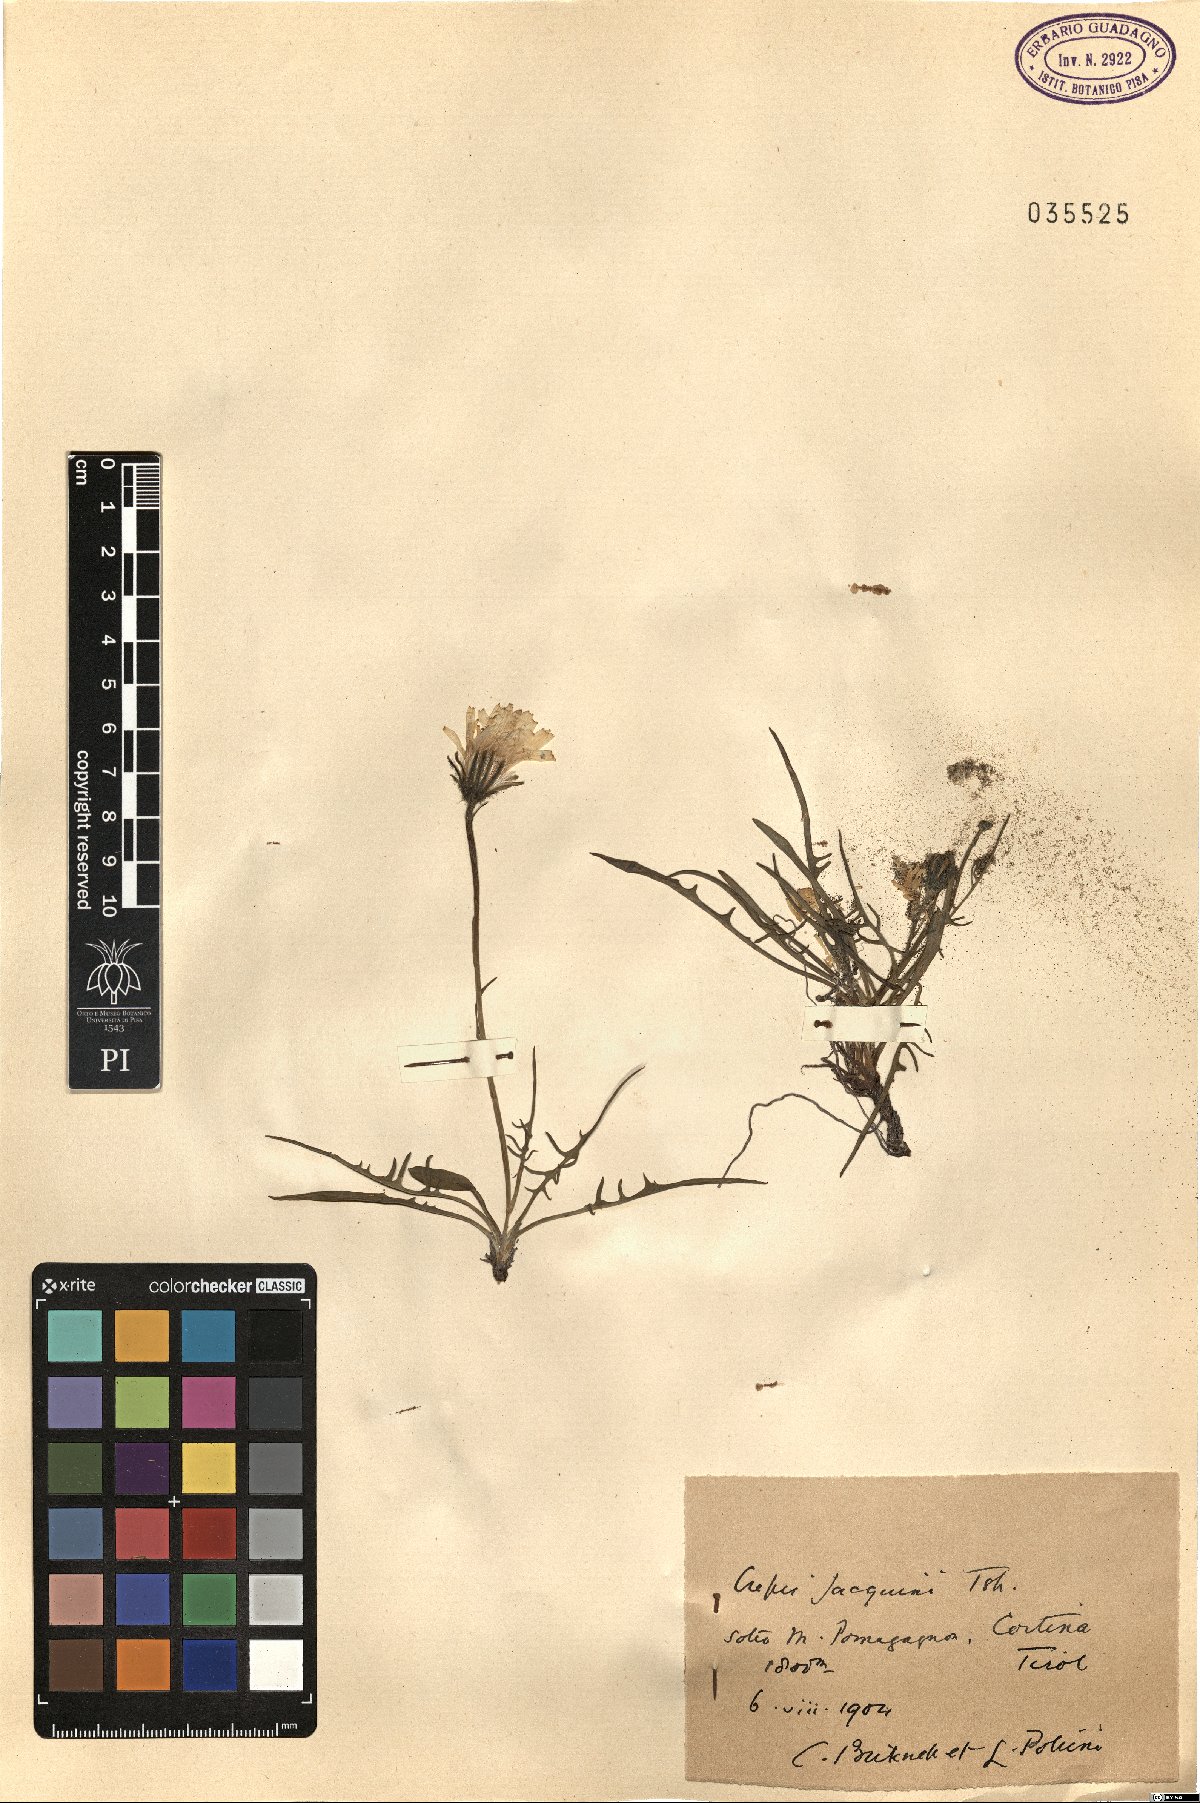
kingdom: Plantae
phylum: Tracheophyta
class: Magnoliopsida
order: Asterales
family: Asteraceae
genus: Crepis
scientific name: Crepis jacquinii
